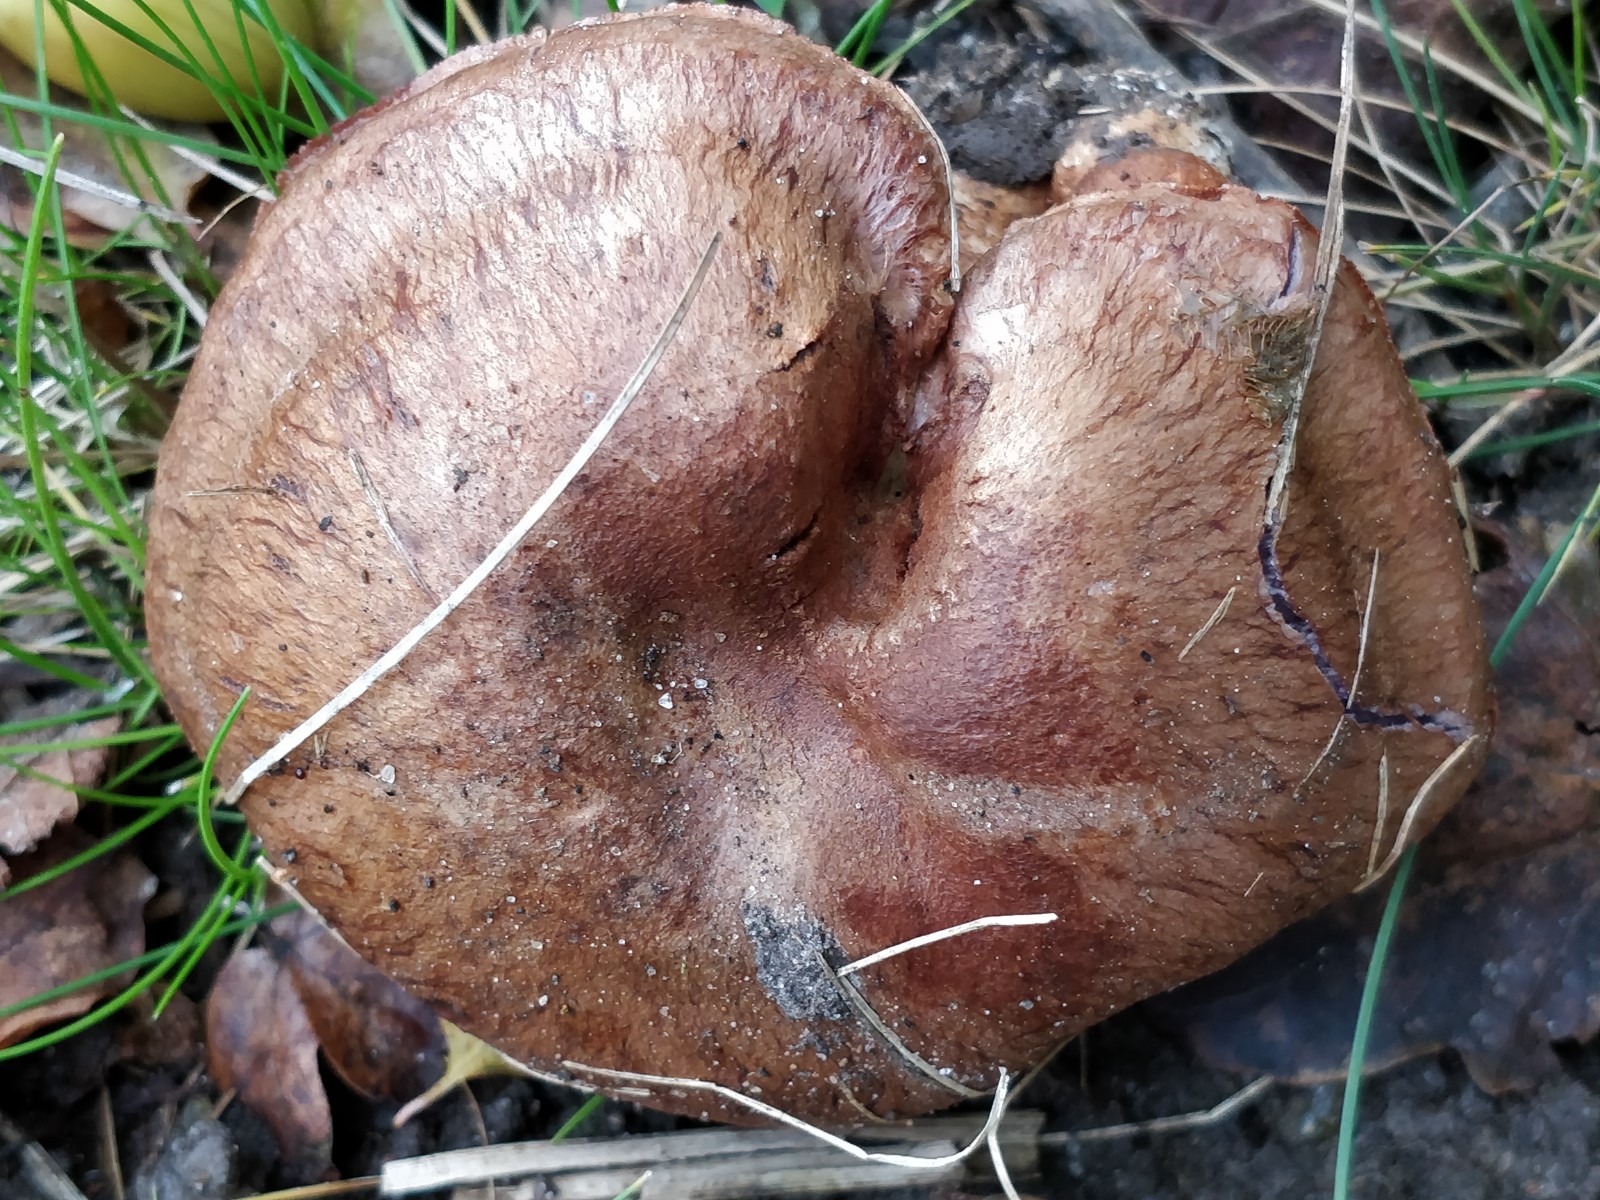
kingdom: Fungi
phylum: Basidiomycota
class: Agaricomycetes
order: Agaricales
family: Cortinariaceae
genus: Cortinarius
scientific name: Cortinarius
